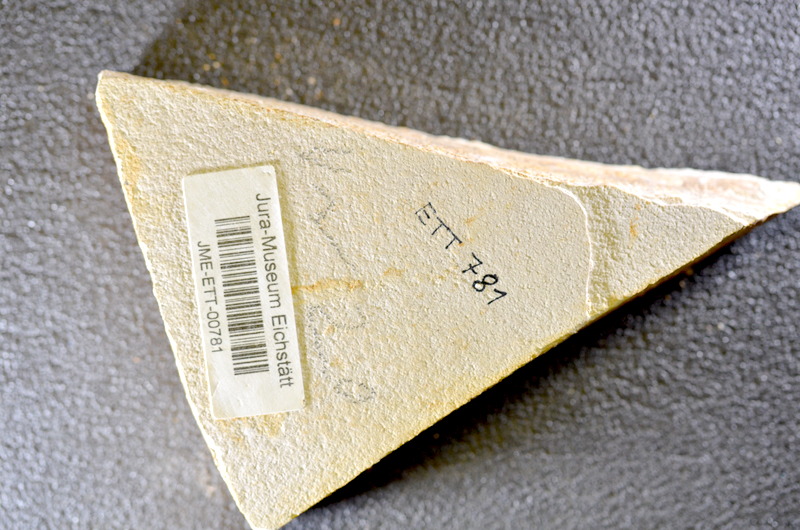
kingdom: Animalia
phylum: Chordata
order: Salmoniformes
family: Orthogonikleithridae
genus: Orthogonikleithrus
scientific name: Orthogonikleithrus hoelli
